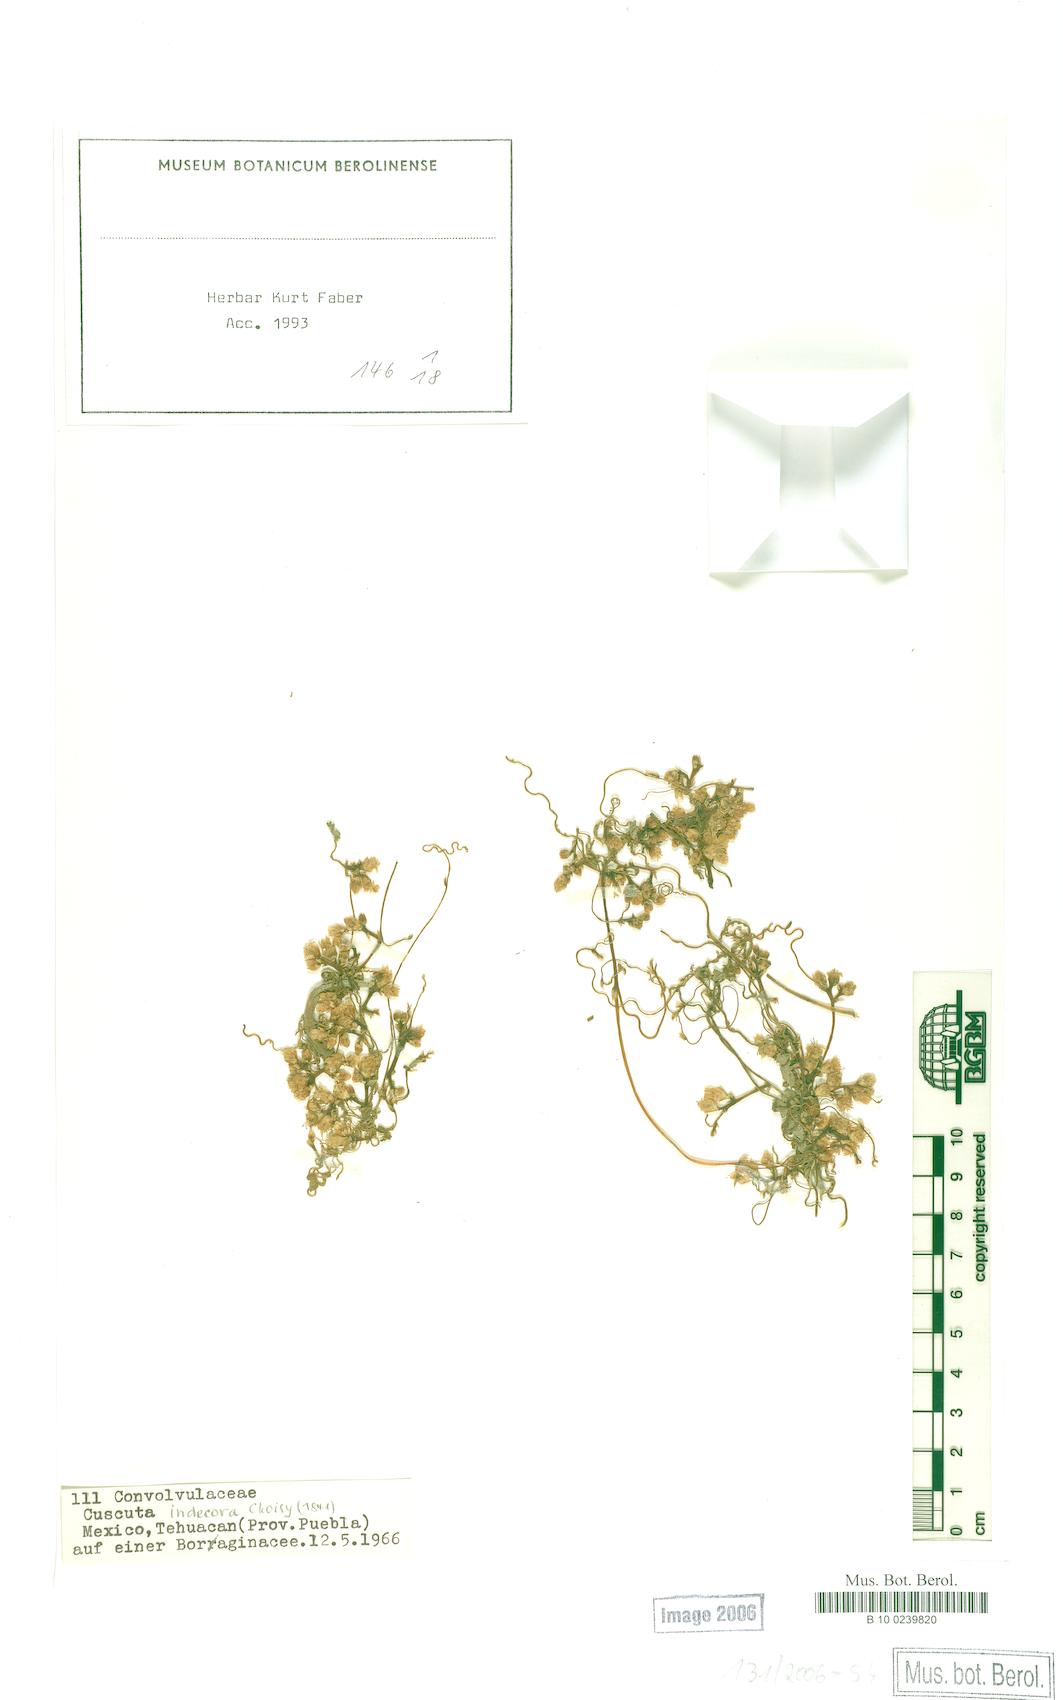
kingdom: Plantae
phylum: Tracheophyta
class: Magnoliopsida
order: Solanales
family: Convolvulaceae
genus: Cuscuta
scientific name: Cuscuta indecora
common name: Large-seed dodder
